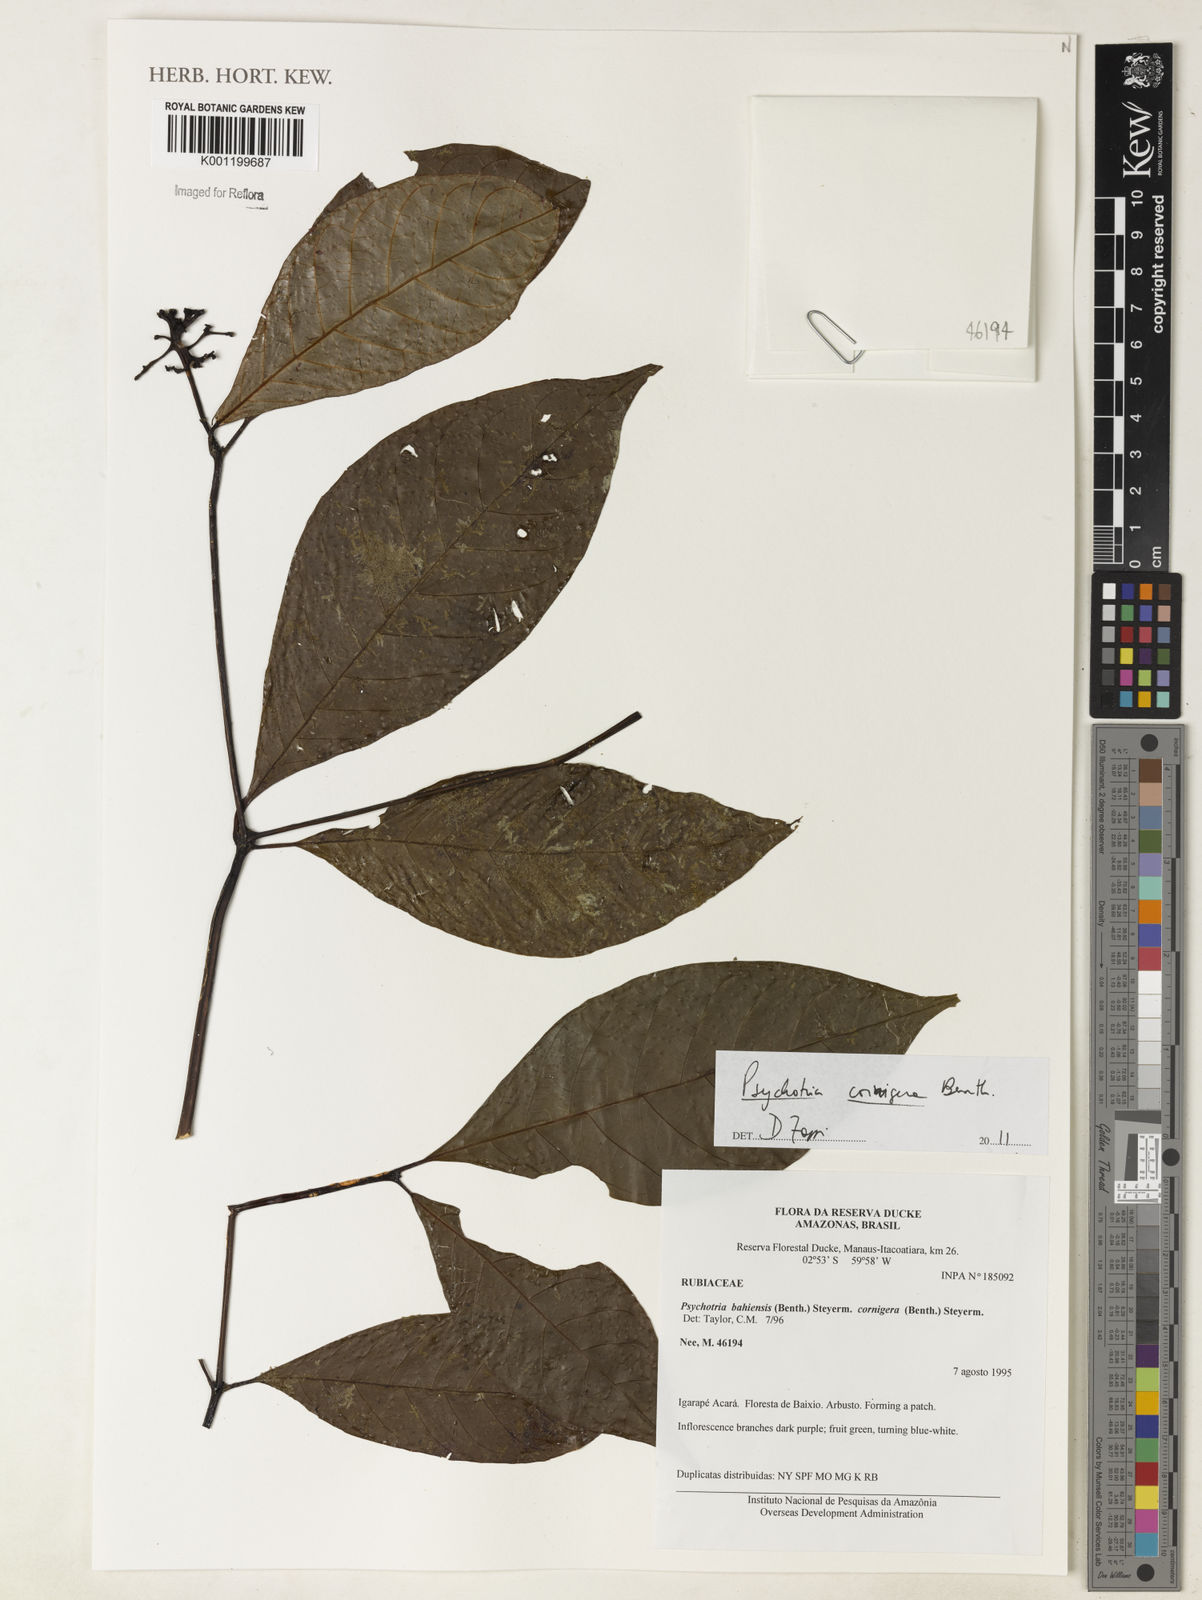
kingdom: Plantae
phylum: Tracheophyta
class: Magnoliopsida
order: Gentianales
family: Rubiaceae
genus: Palicourea
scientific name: Palicourea subcuspidata
